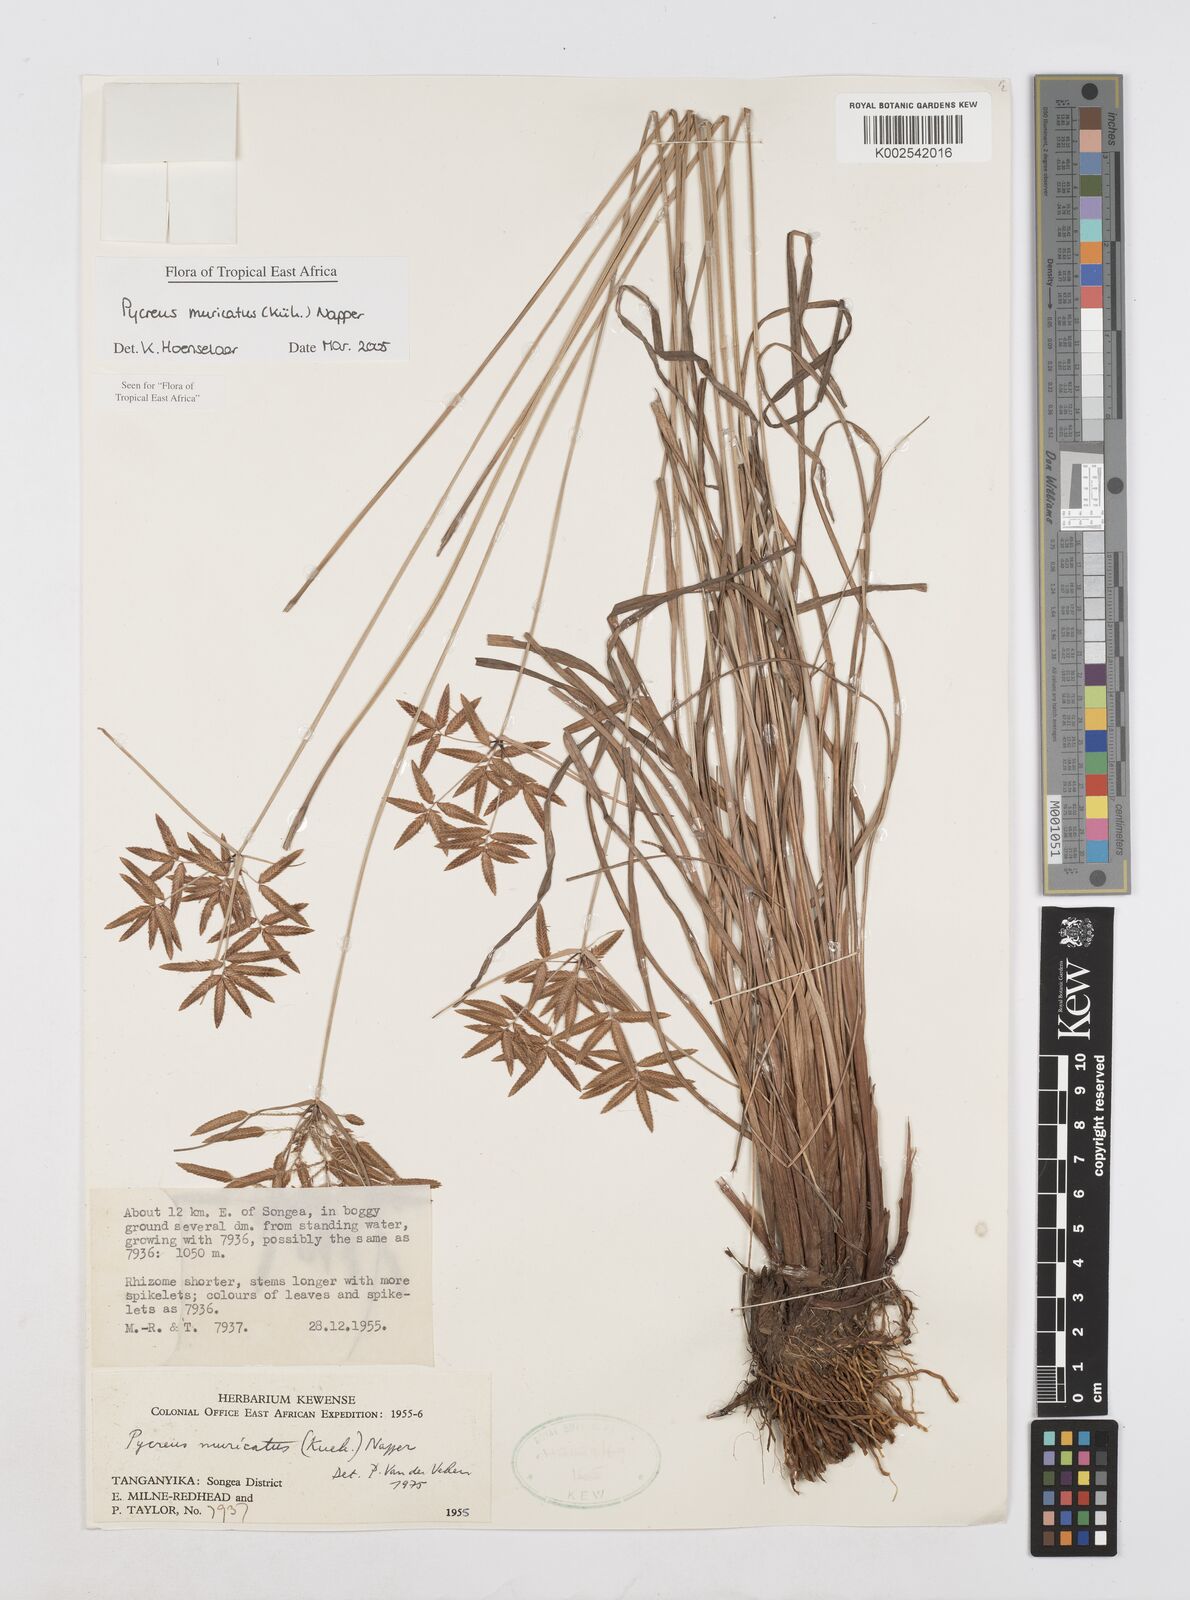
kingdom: Plantae
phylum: Tracheophyta
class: Liliopsida
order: Poales
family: Cyperaceae
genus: Cyperus
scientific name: Cyperus nigricans
